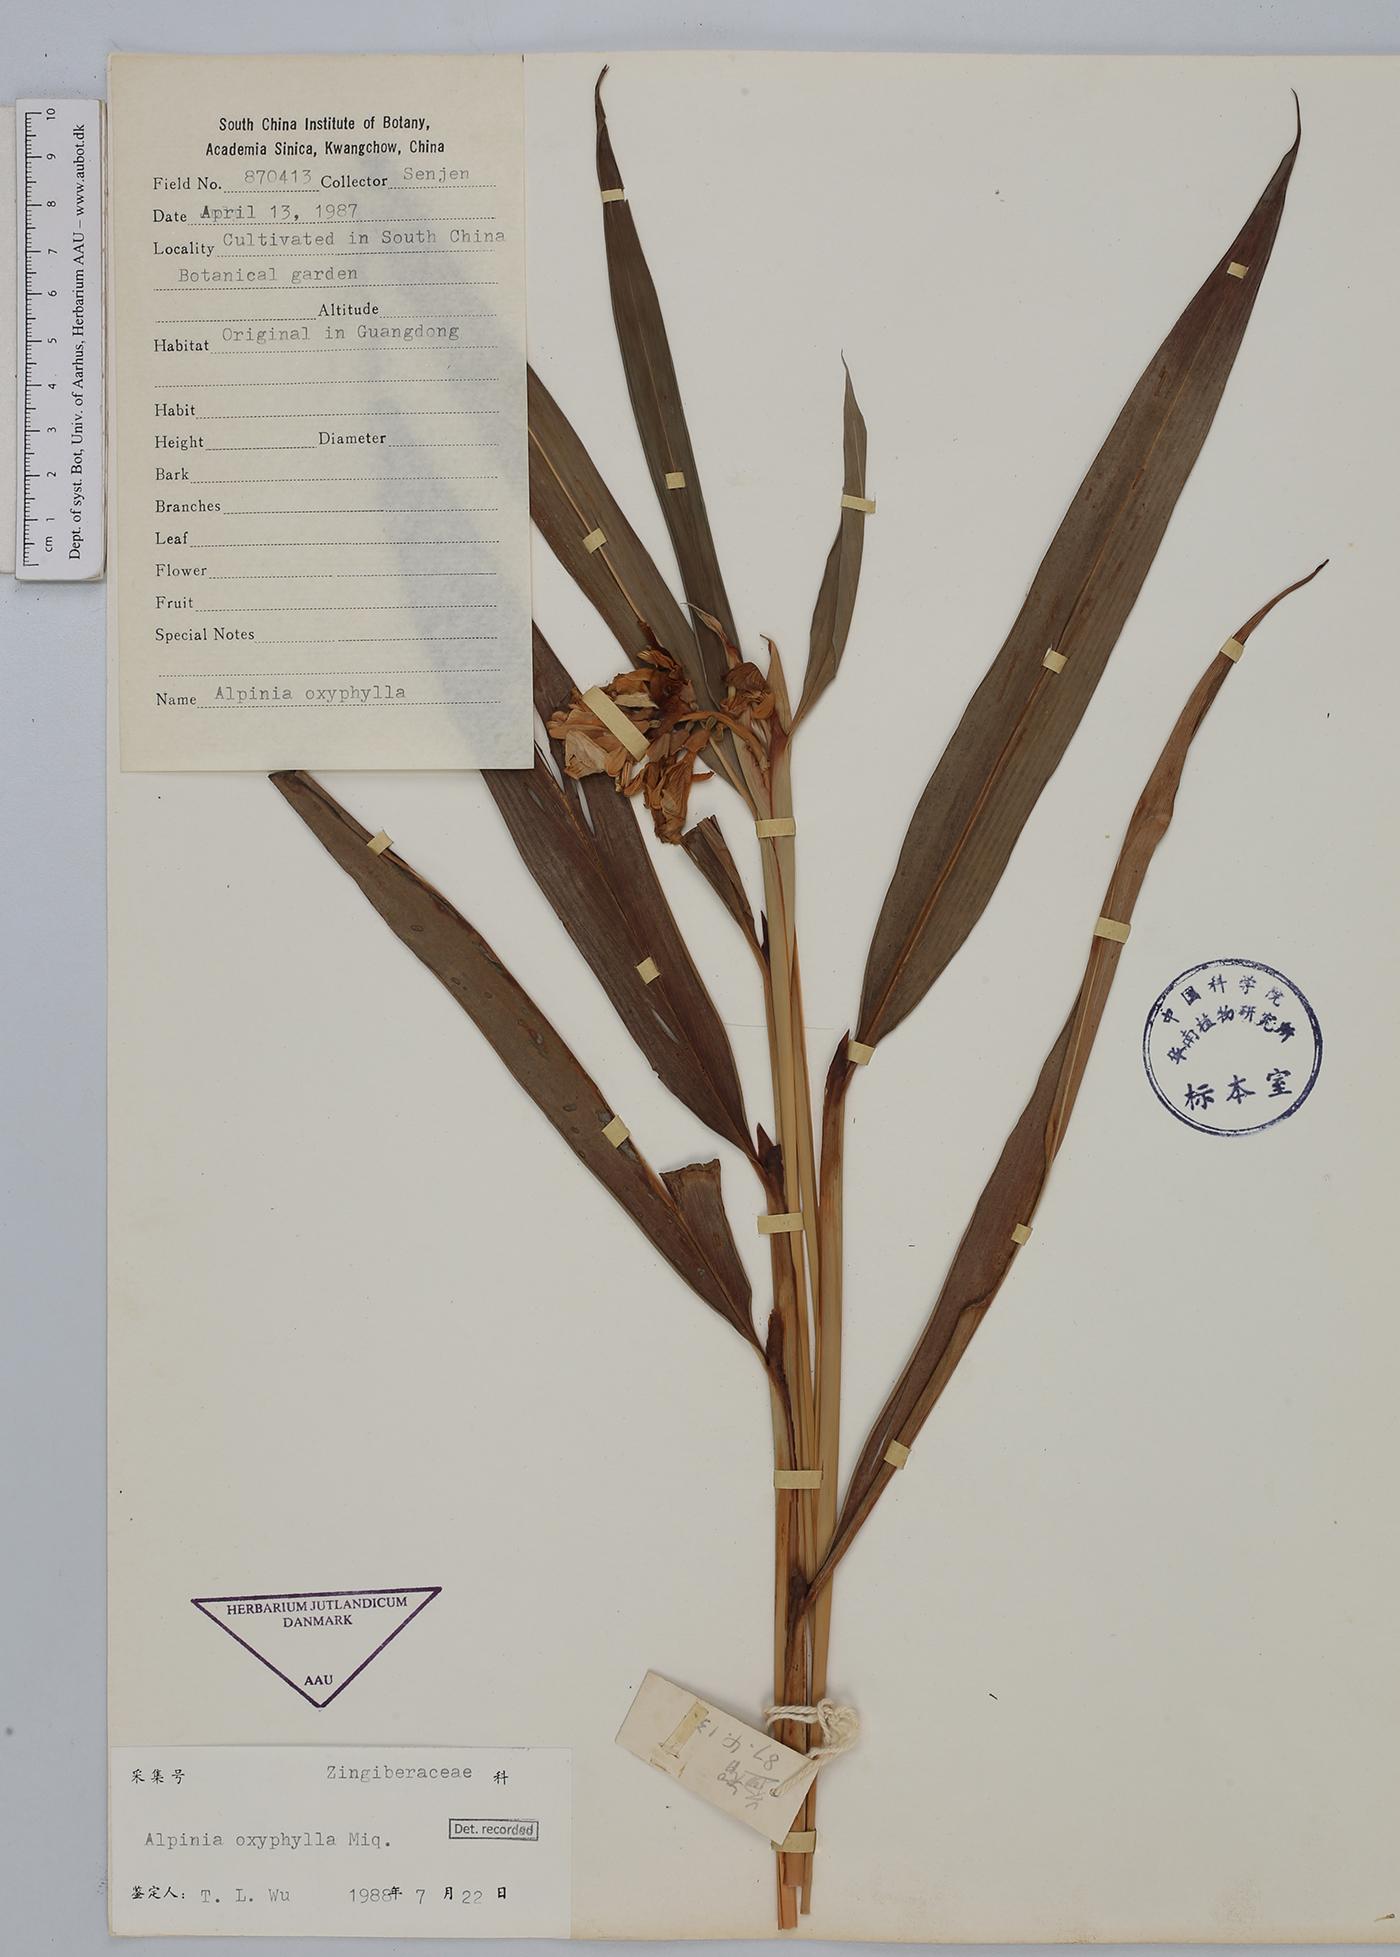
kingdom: Plantae
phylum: Tracheophyta
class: Liliopsida
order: Zingiberales
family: Zingiberaceae
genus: Alpinia
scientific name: Alpinia oxyphylla
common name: Sharp-leaf galangal
